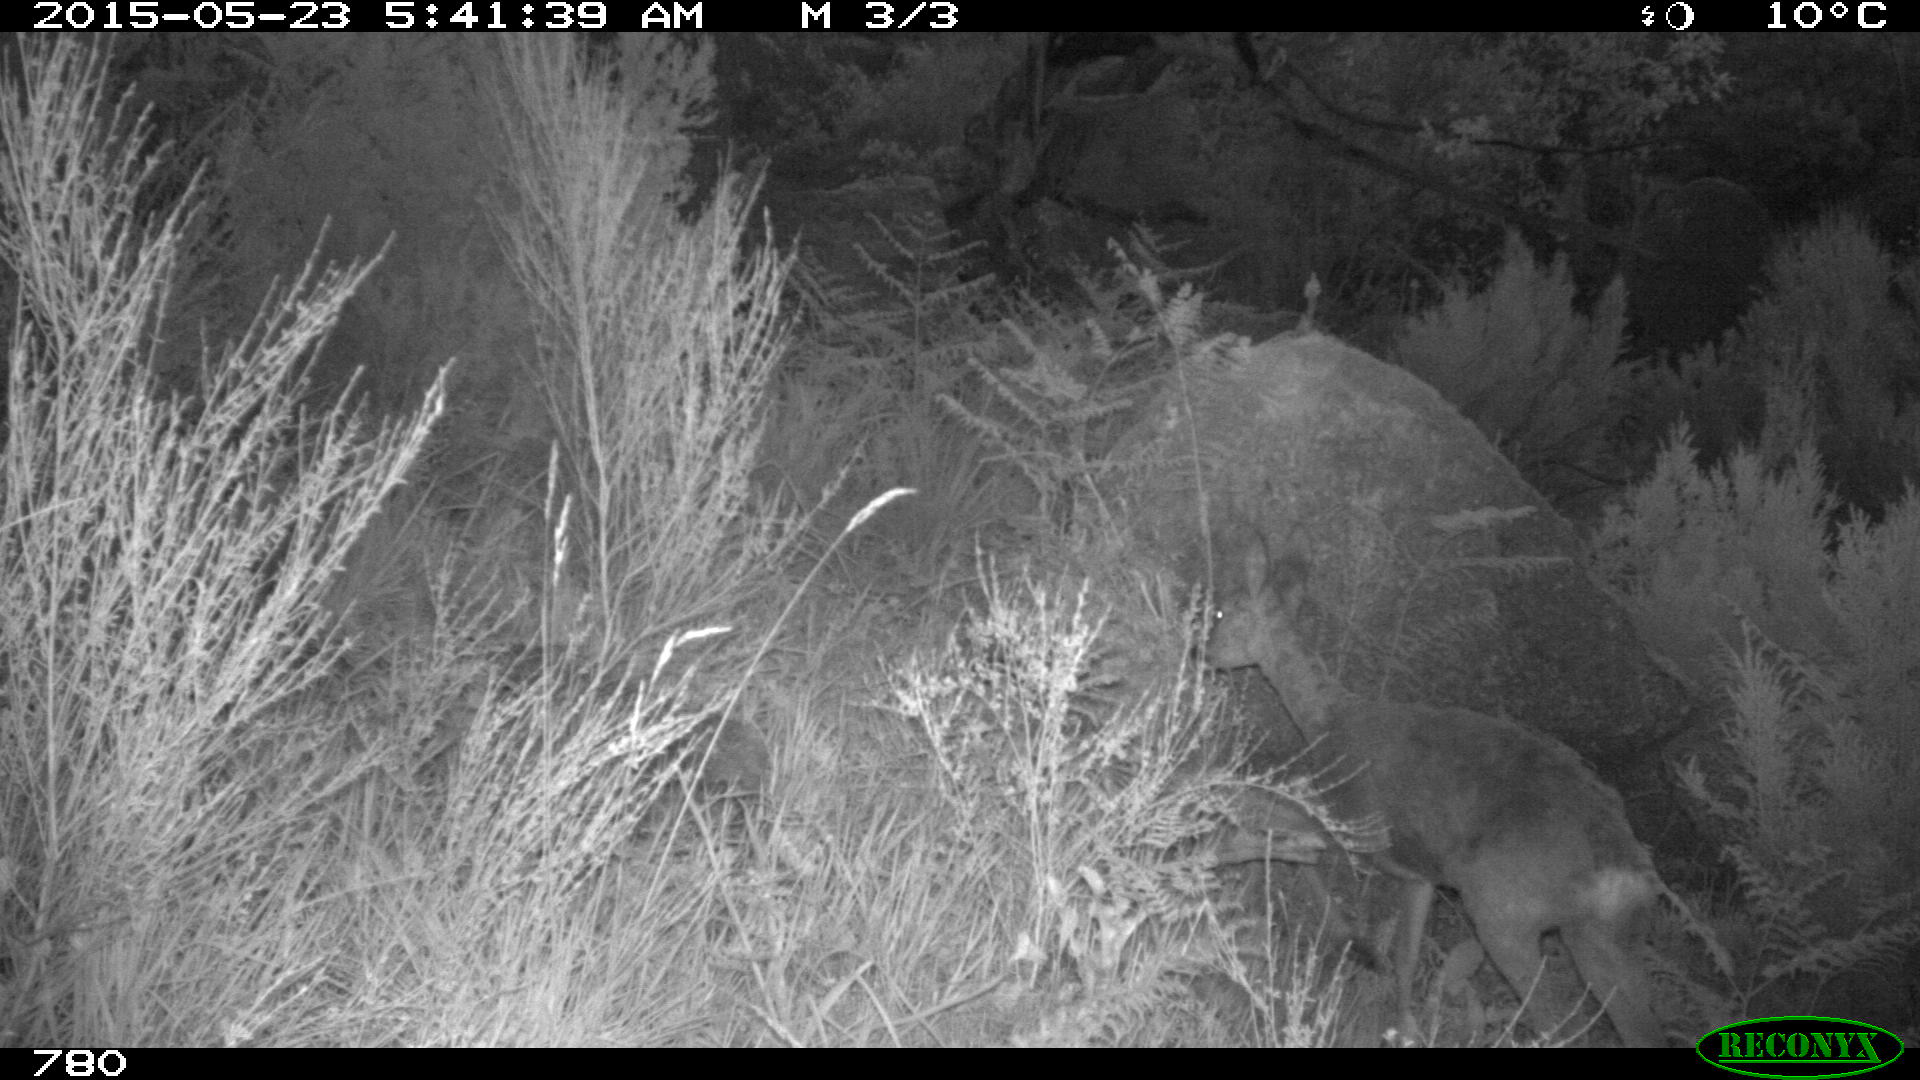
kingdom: Animalia
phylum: Chordata
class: Mammalia
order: Artiodactyla
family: Cervidae
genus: Capreolus
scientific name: Capreolus capreolus
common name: Western roe deer
